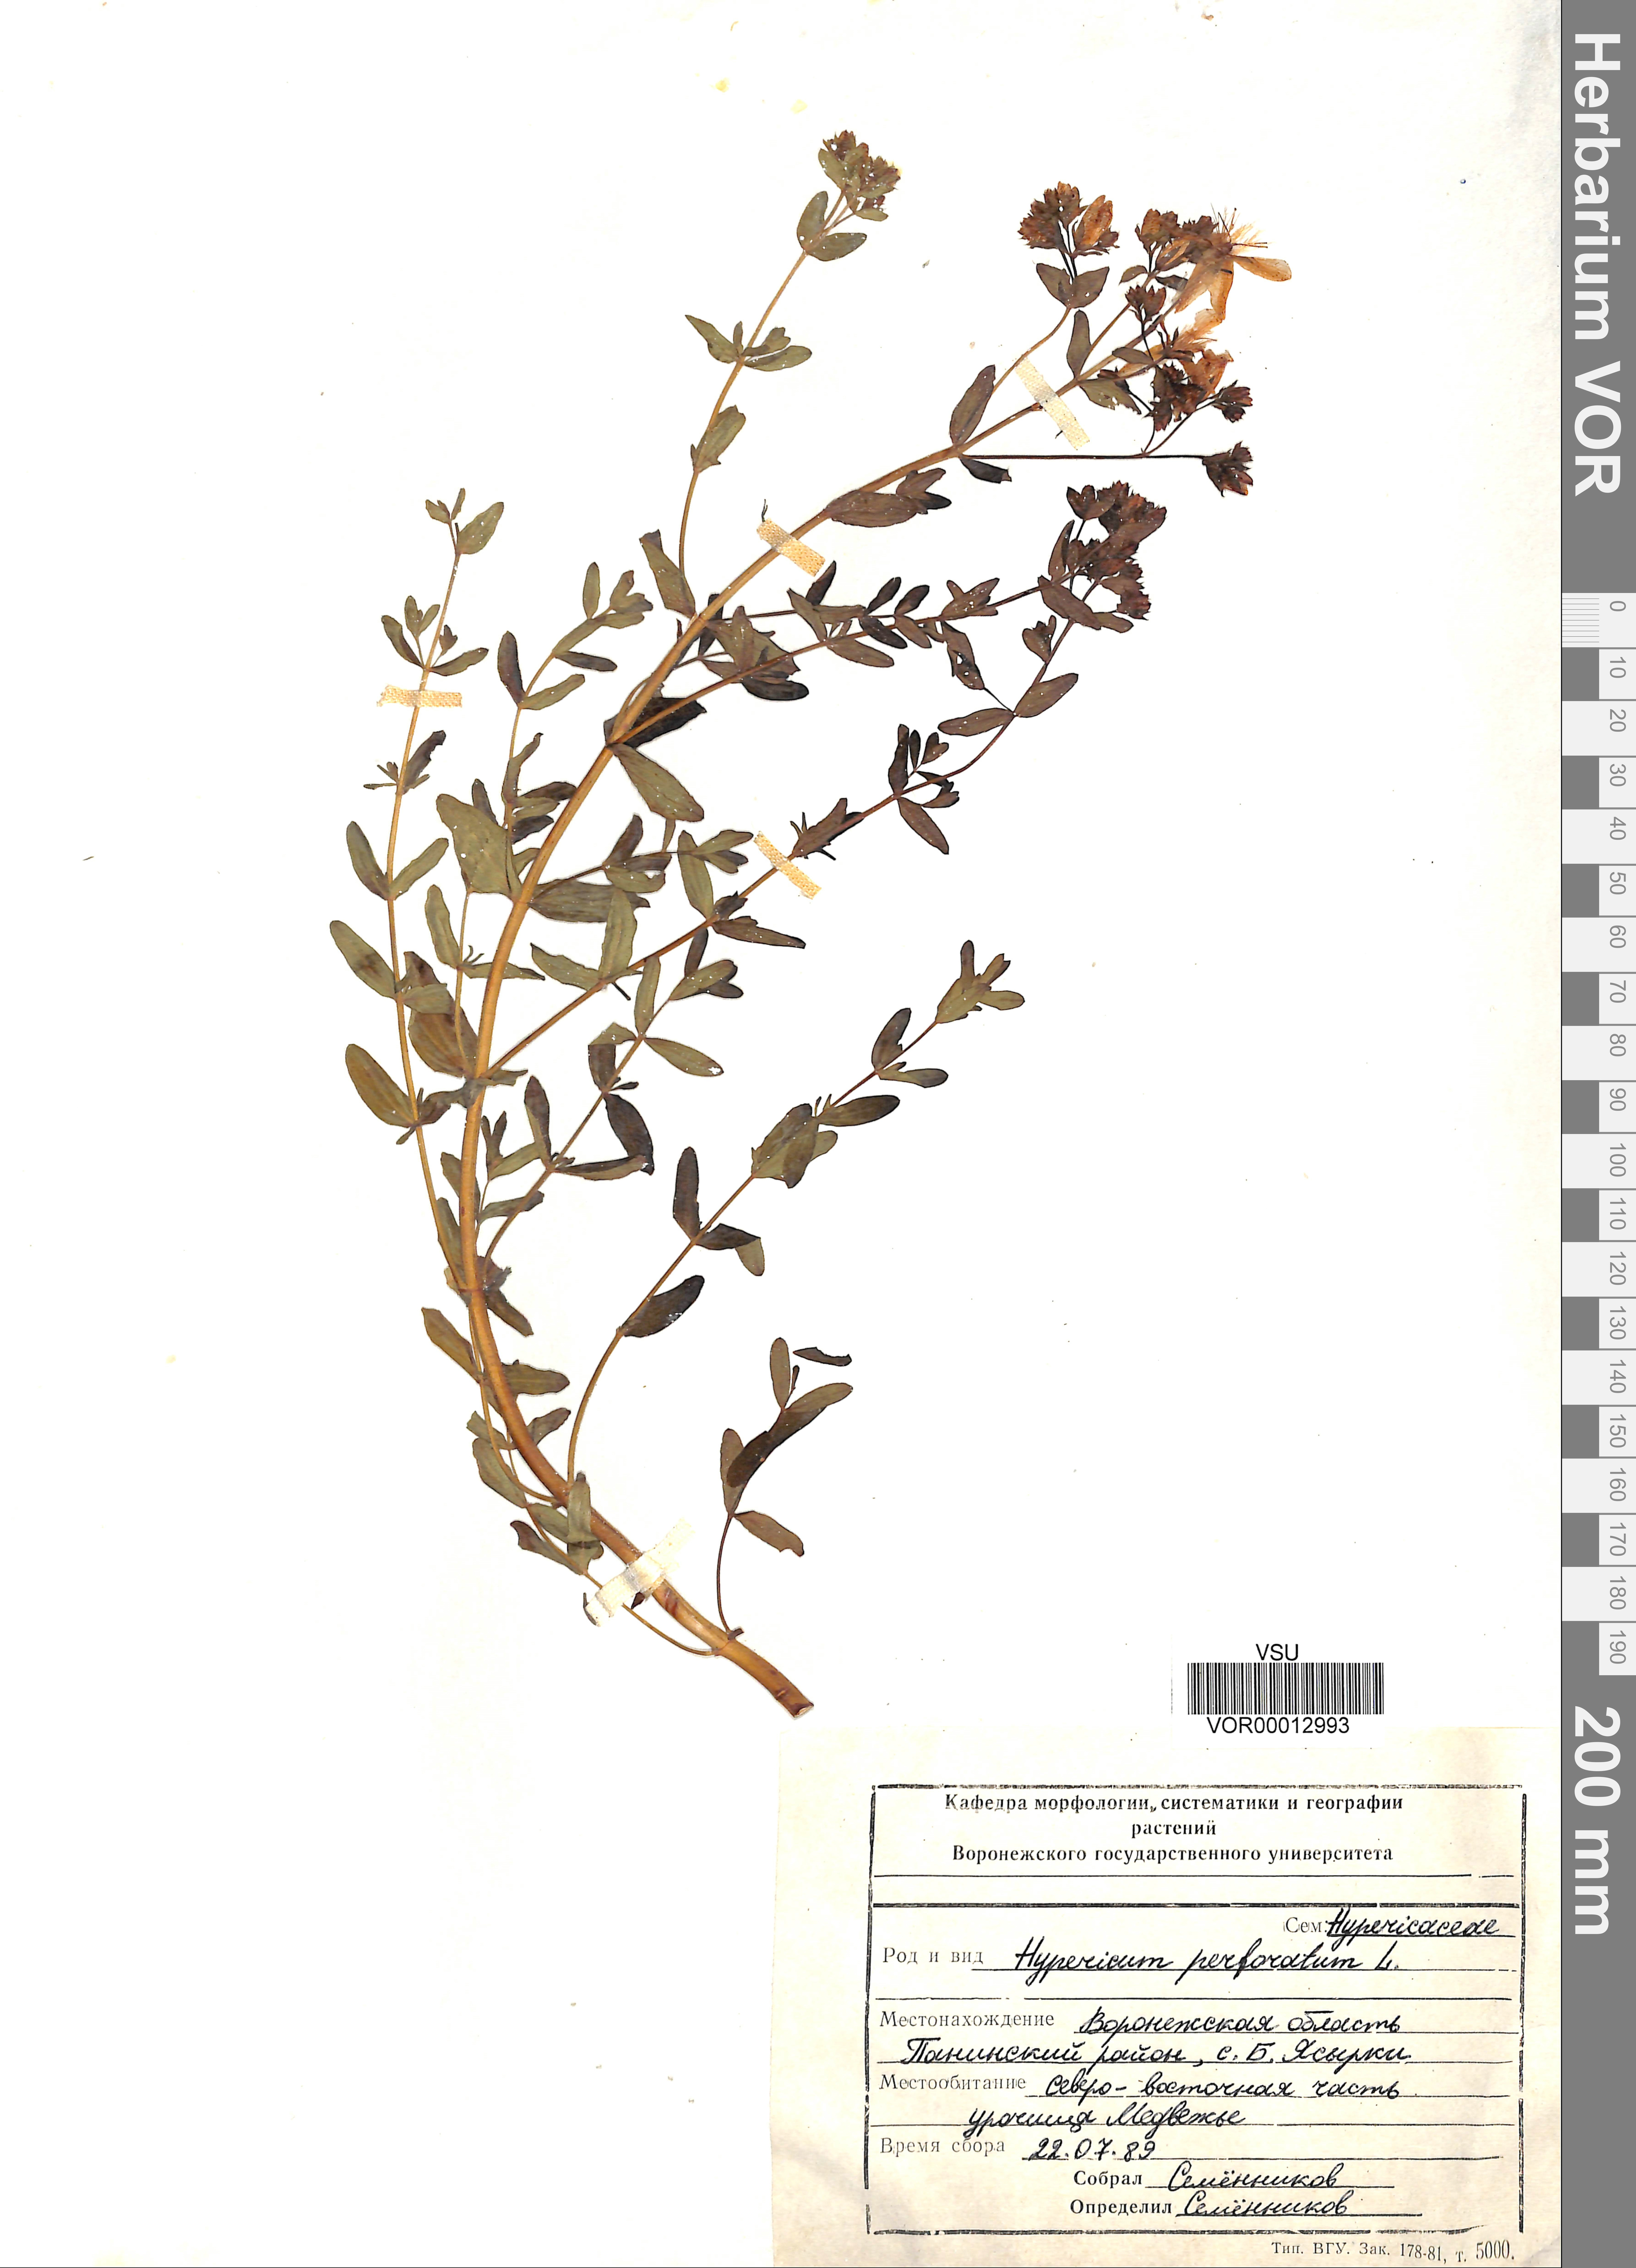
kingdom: Plantae
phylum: Tracheophyta
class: Magnoliopsida
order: Malpighiales
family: Hypericaceae
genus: Hypericum
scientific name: Hypericum perforatum
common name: Common st. johnswort
